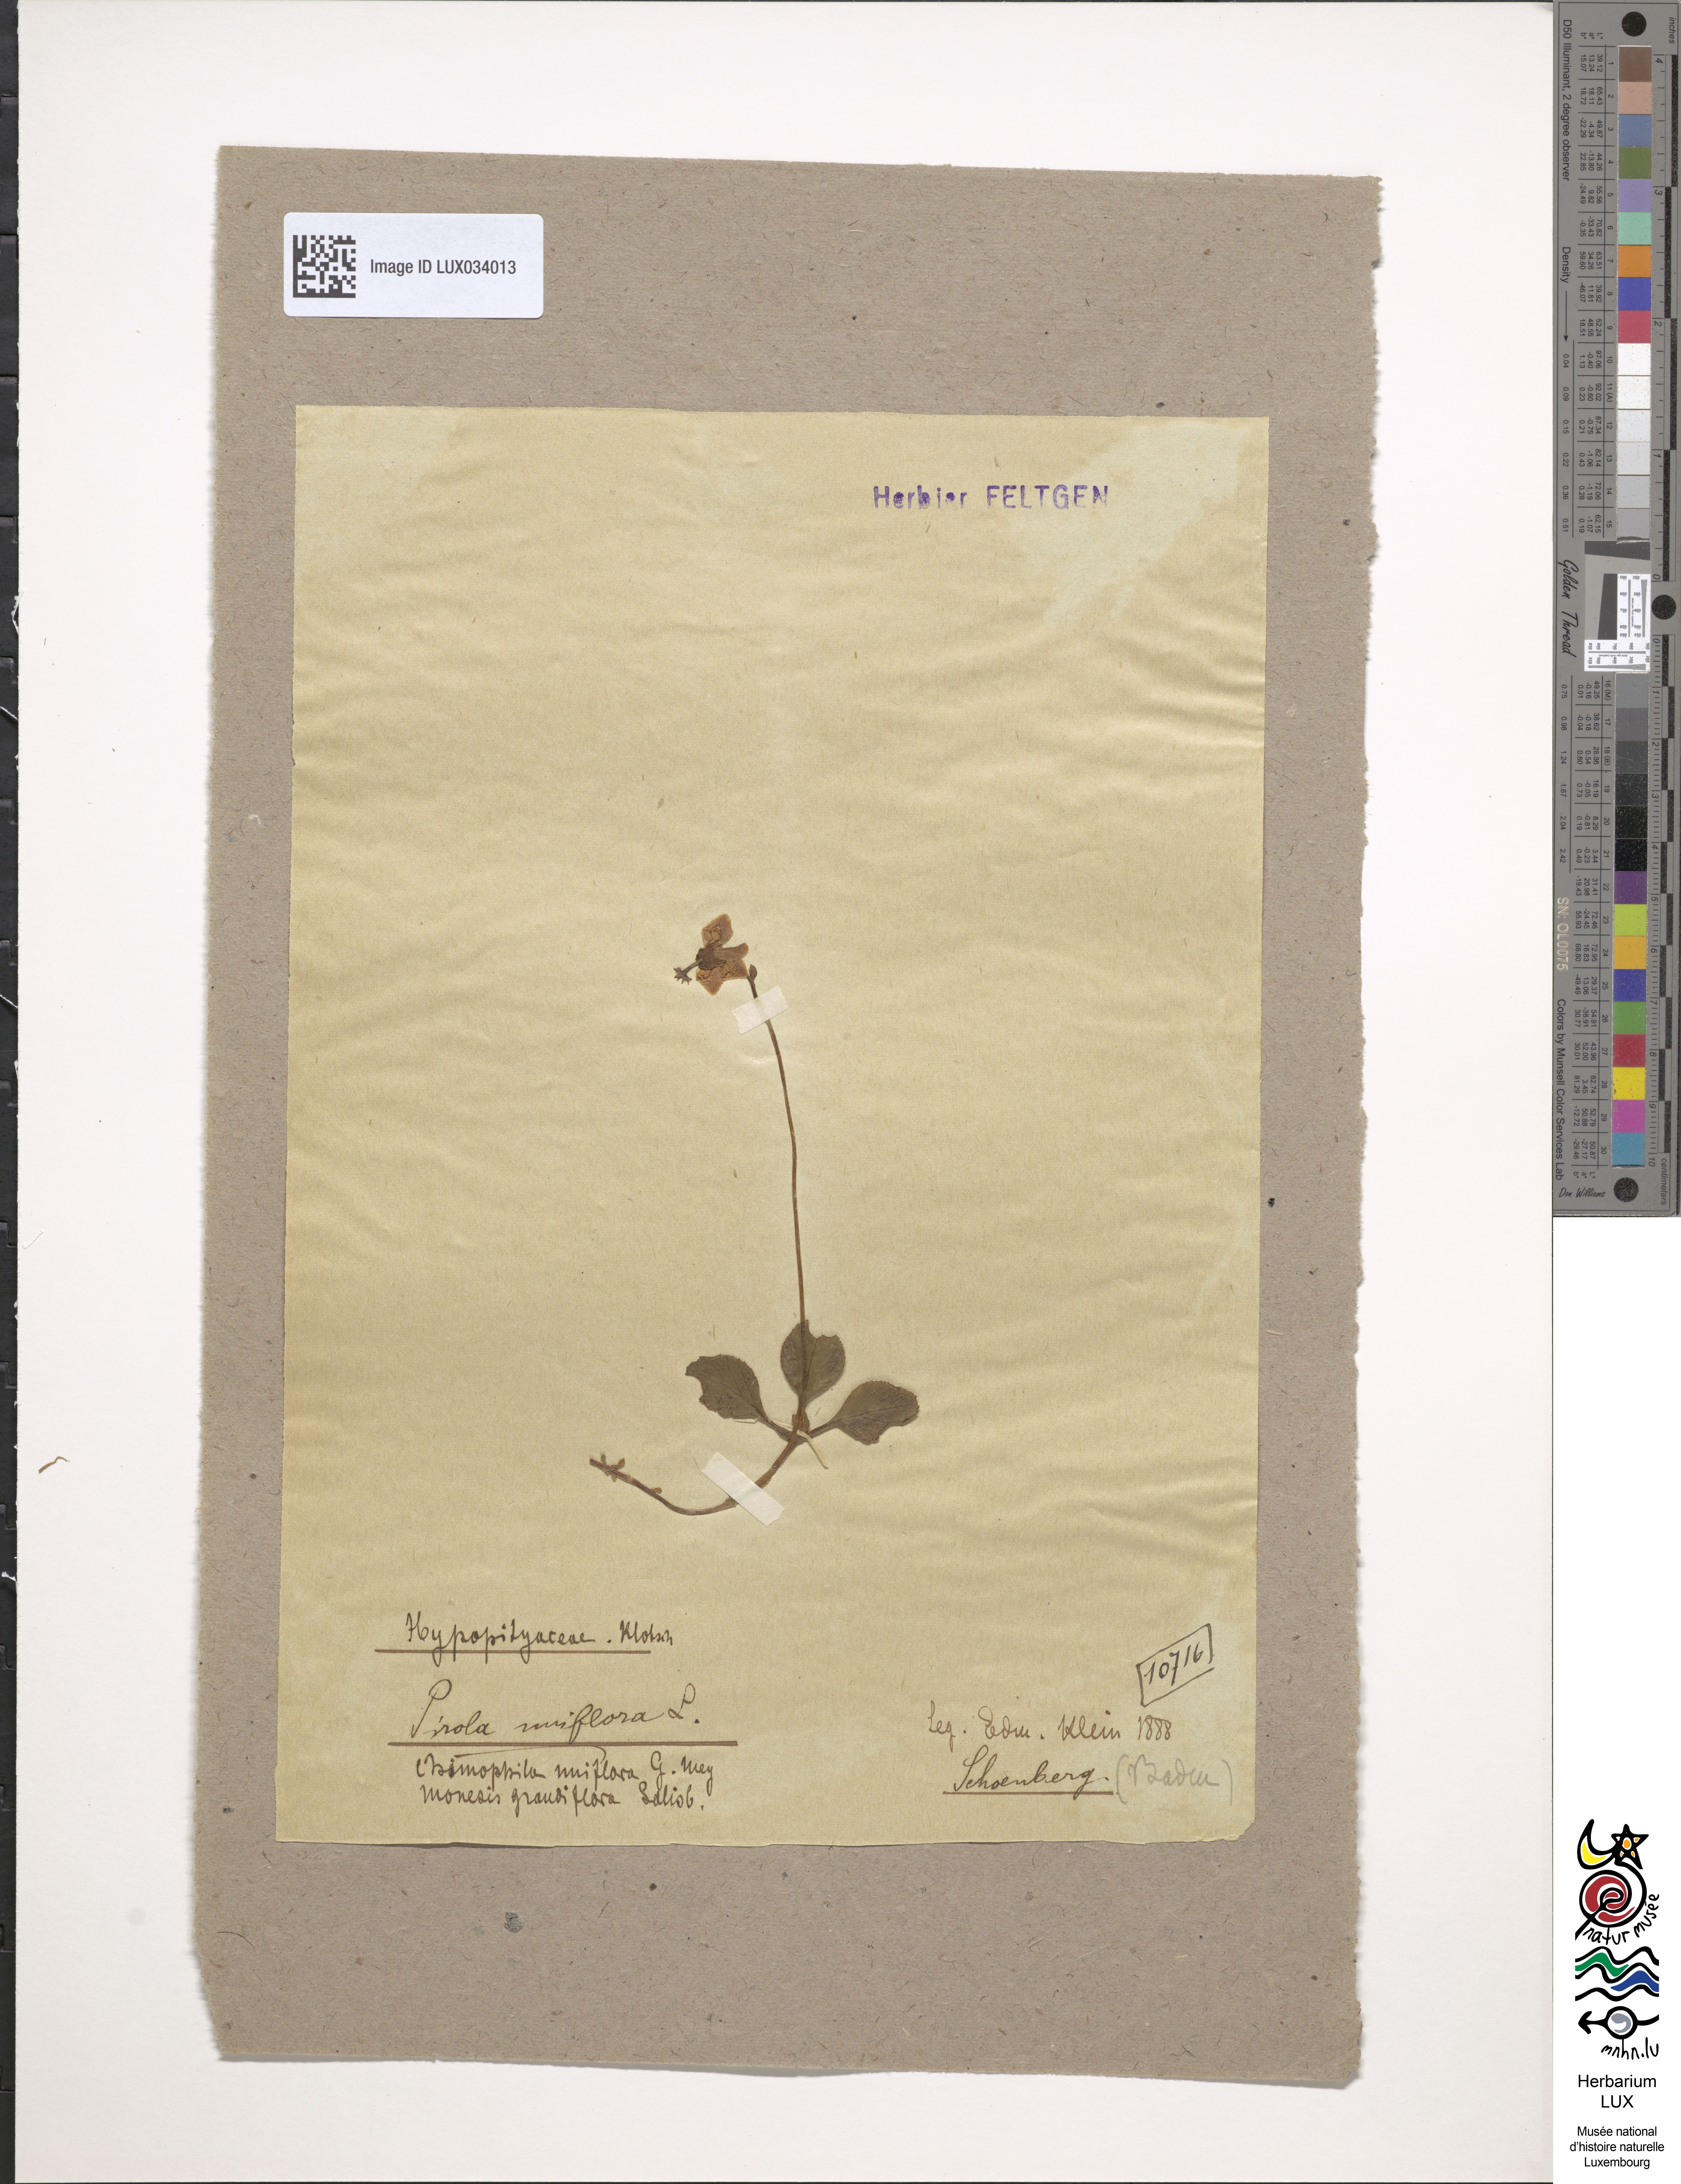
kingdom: Plantae
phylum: Tracheophyta
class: Magnoliopsida
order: Ericales
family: Ericaceae
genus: Moneses
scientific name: Moneses uniflora
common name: One-flowered wintergreen
